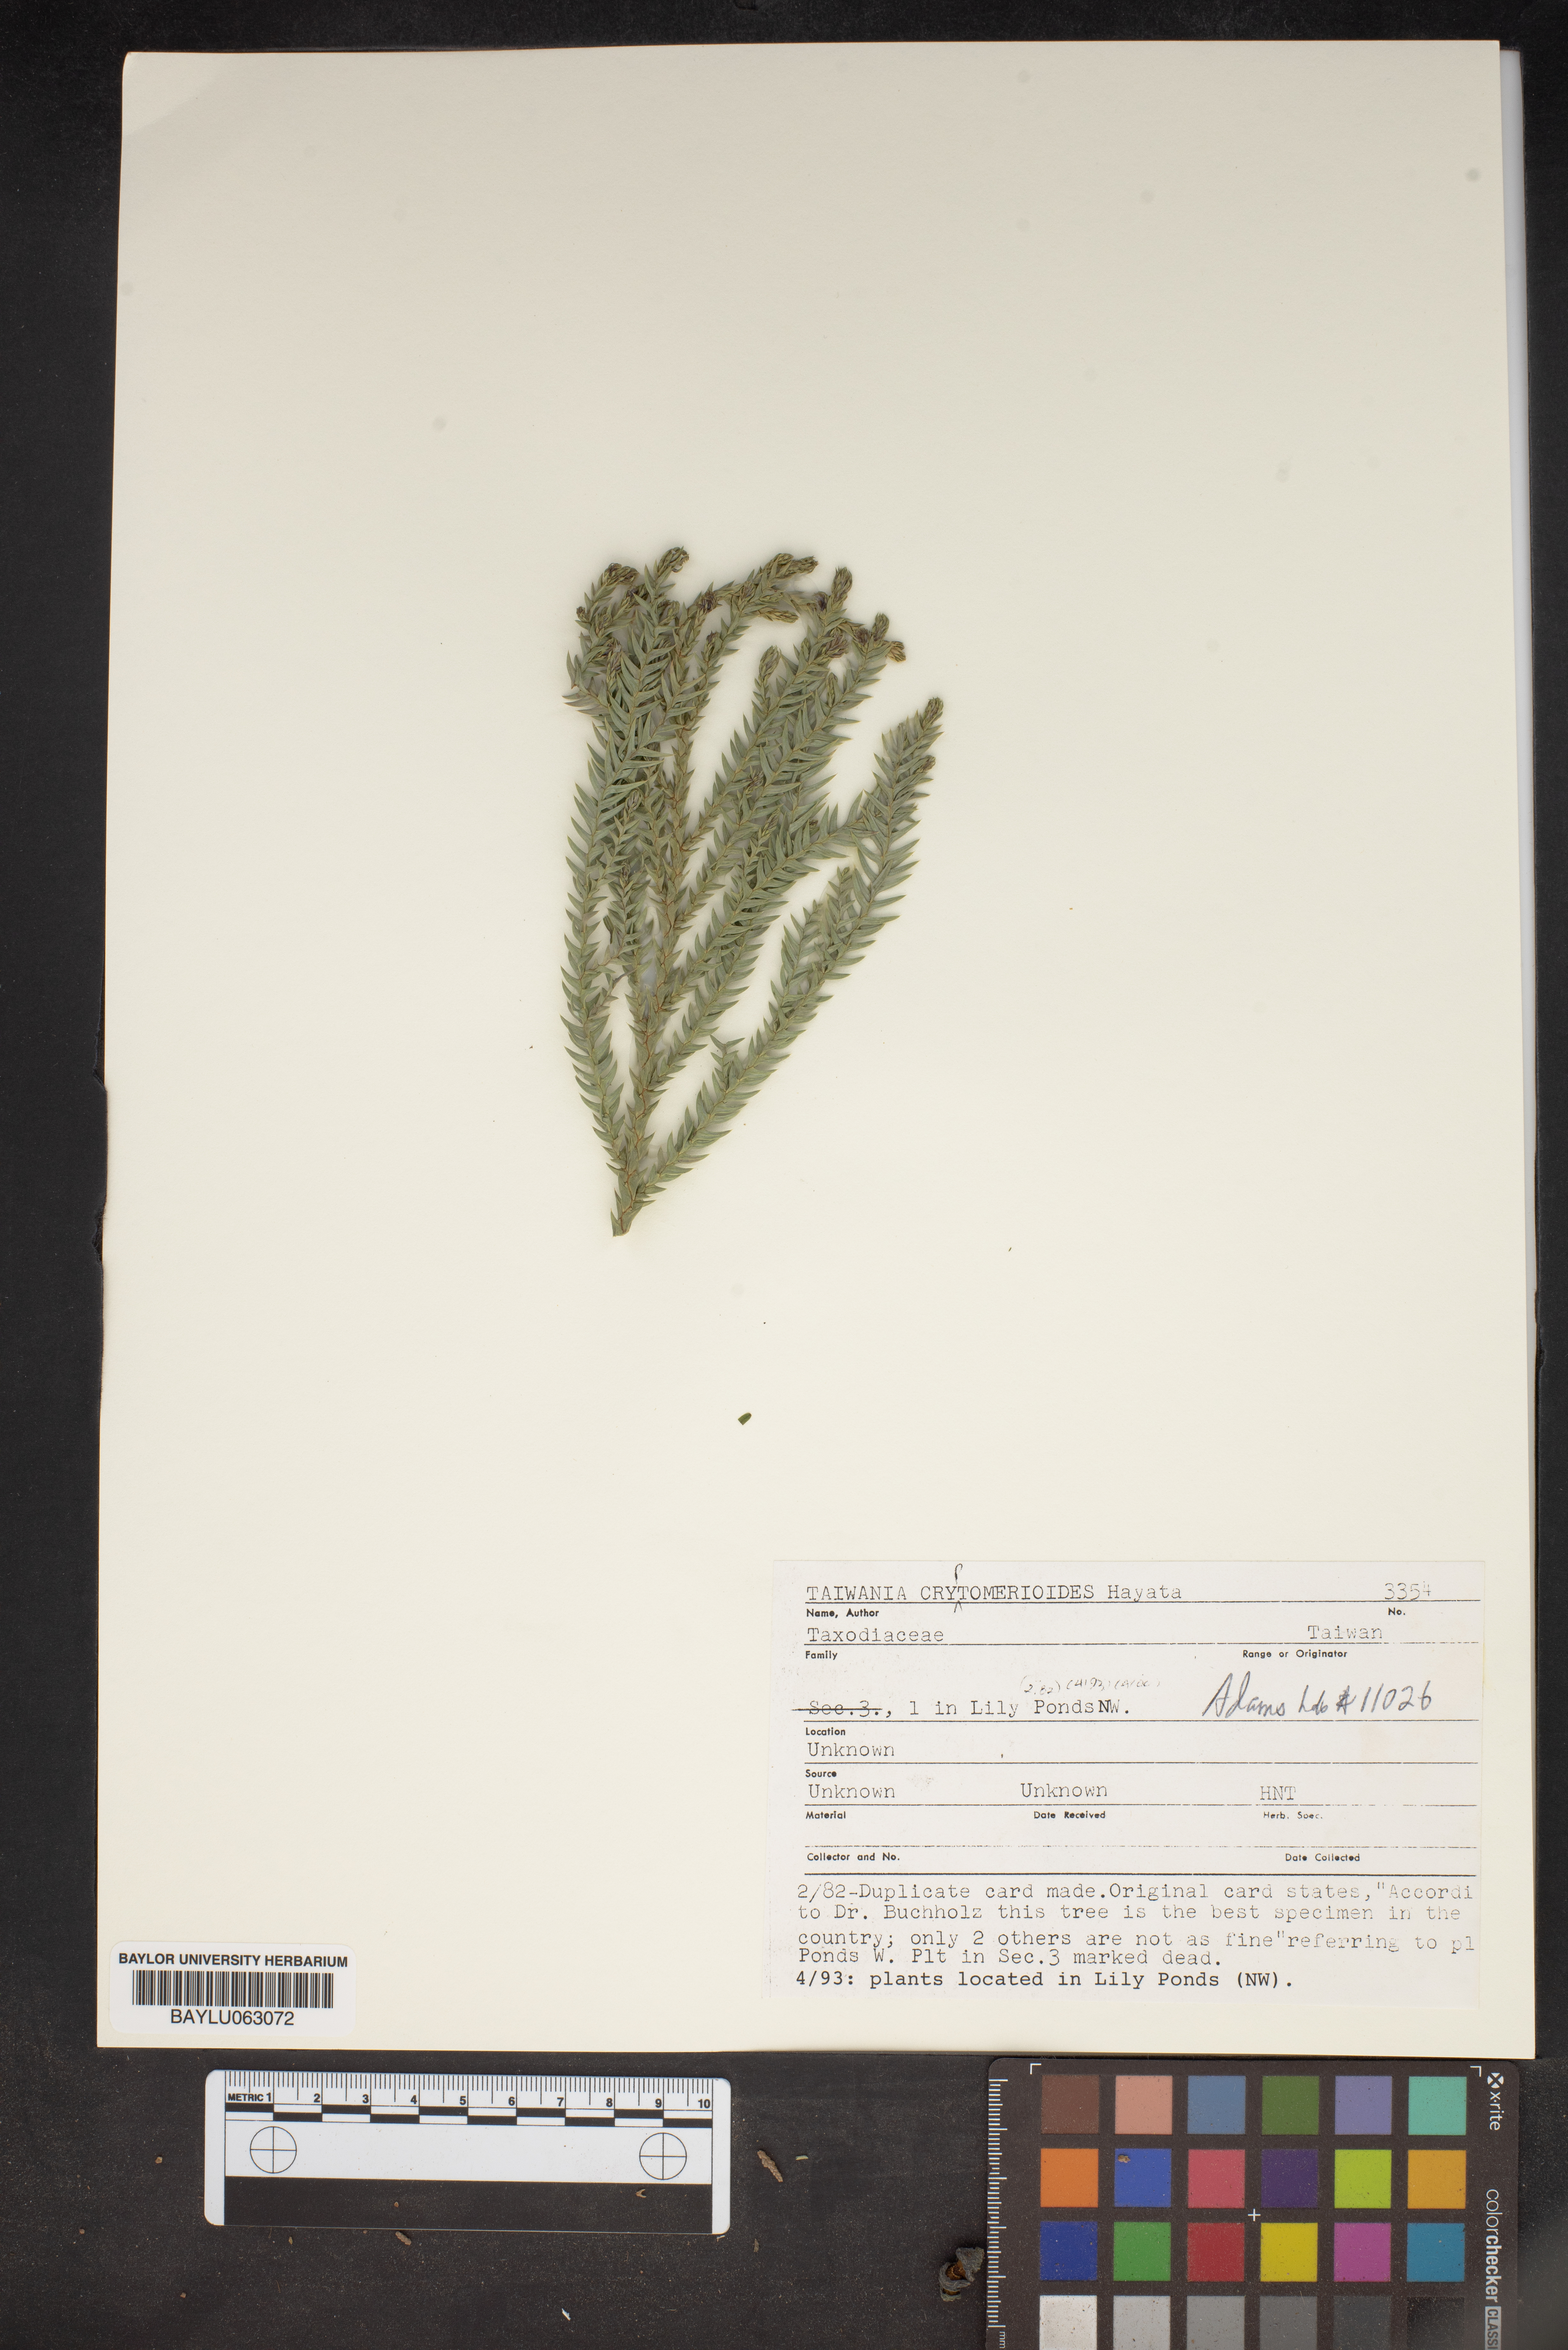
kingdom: Plantae
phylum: Tracheophyta
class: Pinopsida
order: Pinales
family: Cupressaceae
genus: Taiwania
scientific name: Taiwania cryptomerioides
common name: Coffin tree
